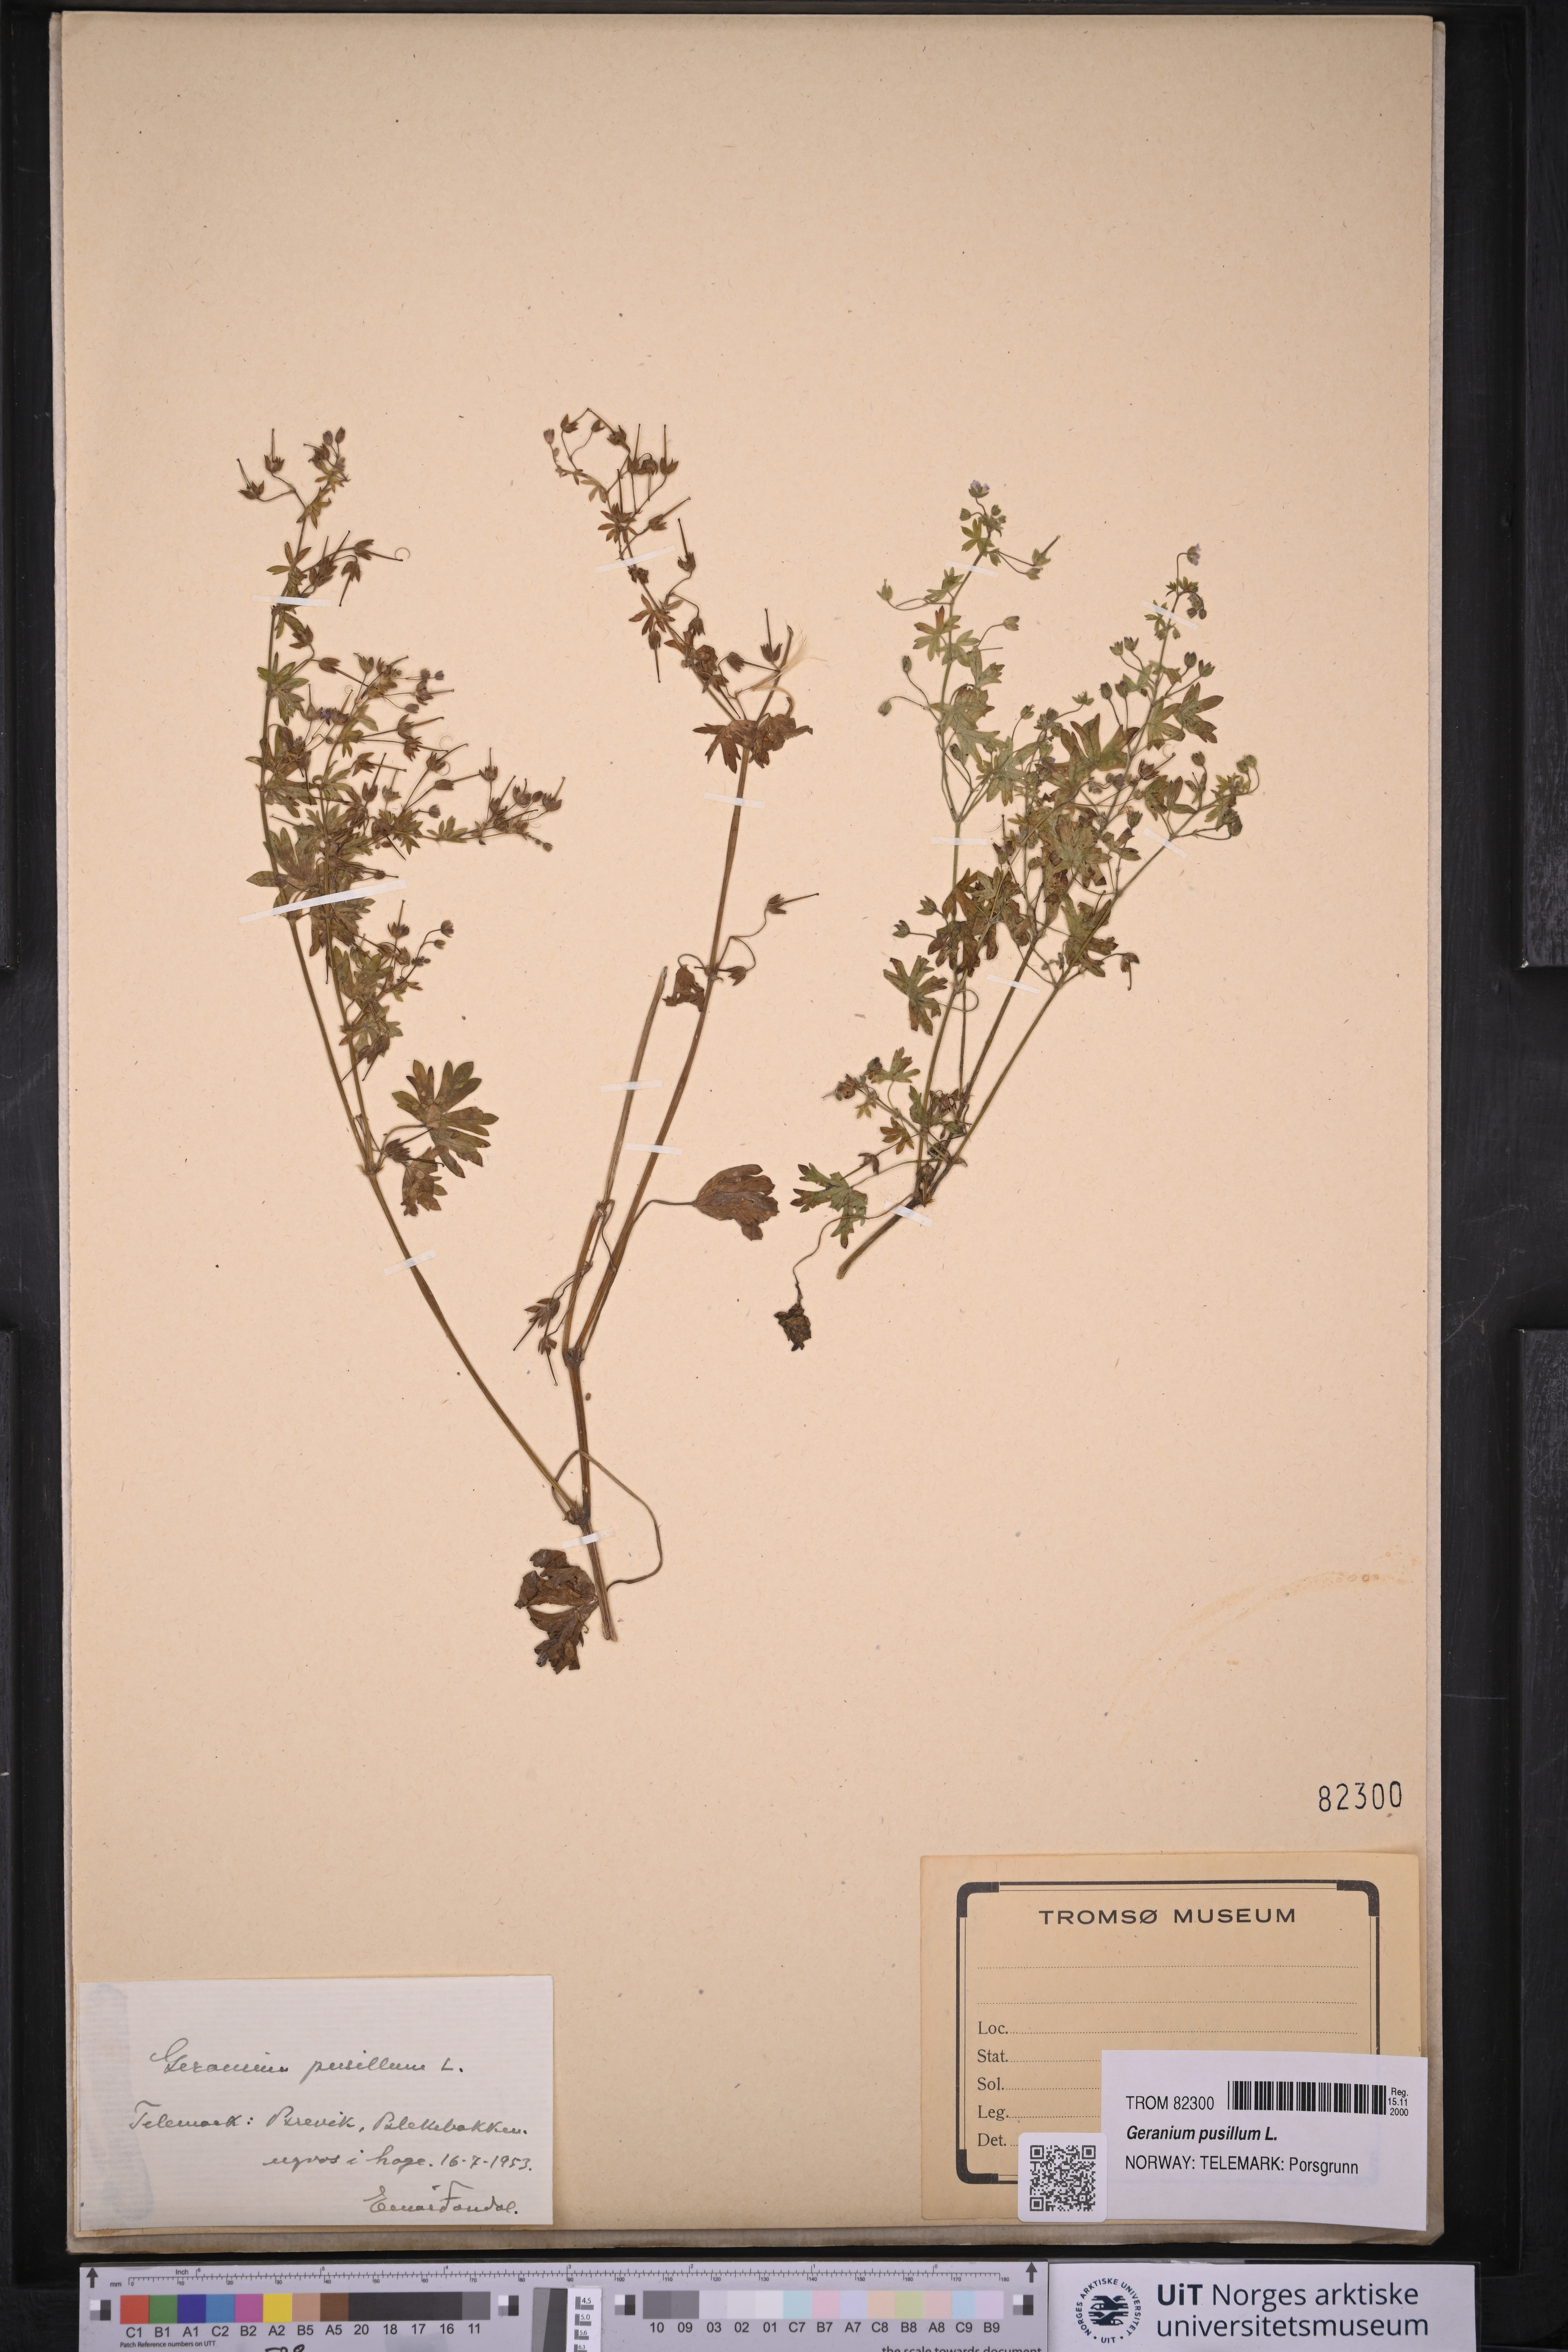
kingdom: Plantae
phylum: Tracheophyta
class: Magnoliopsida
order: Geraniales
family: Geraniaceae
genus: Geranium
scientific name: Geranium pusillum
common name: Small geranium
